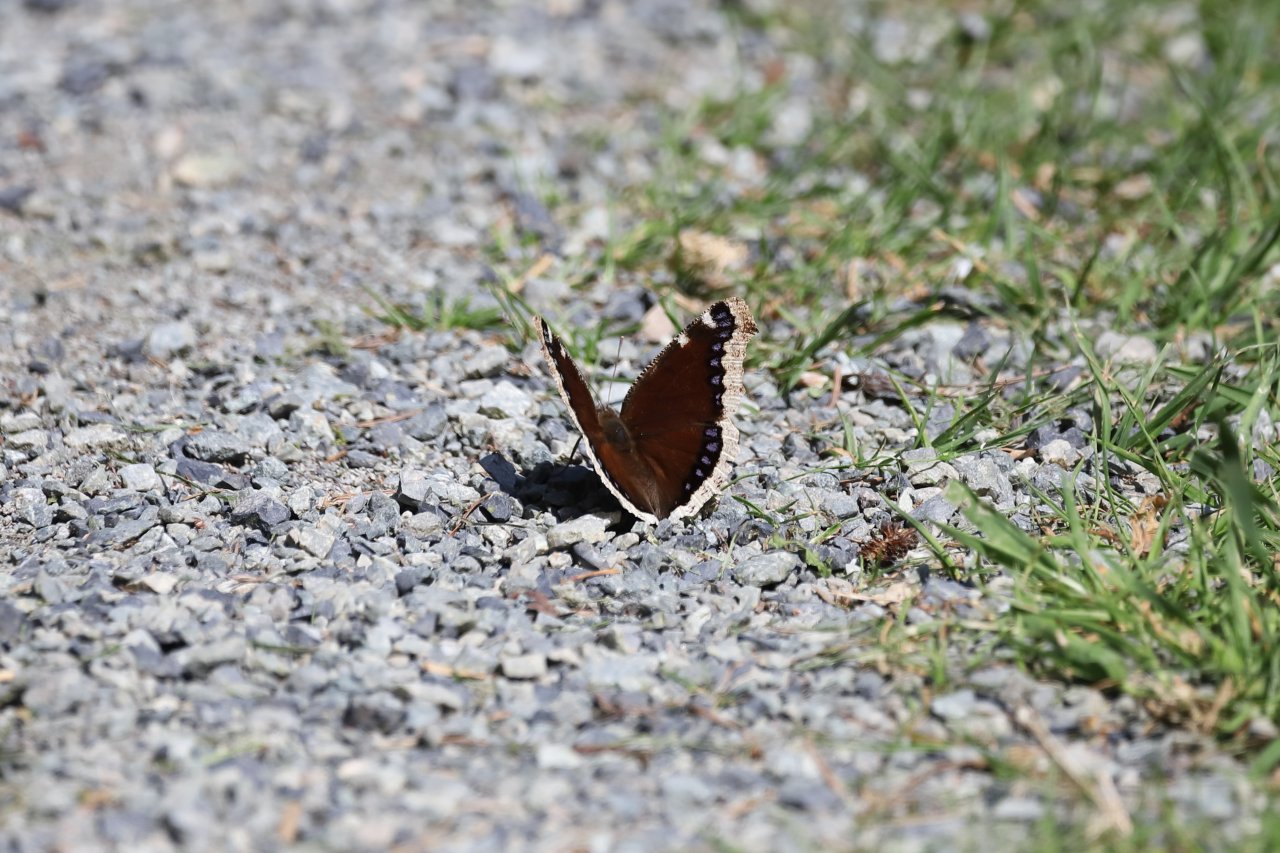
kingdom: Animalia
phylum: Arthropoda
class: Insecta
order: Lepidoptera
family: Nymphalidae
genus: Nymphalis
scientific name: Nymphalis antiopa
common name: Mourning Cloak
